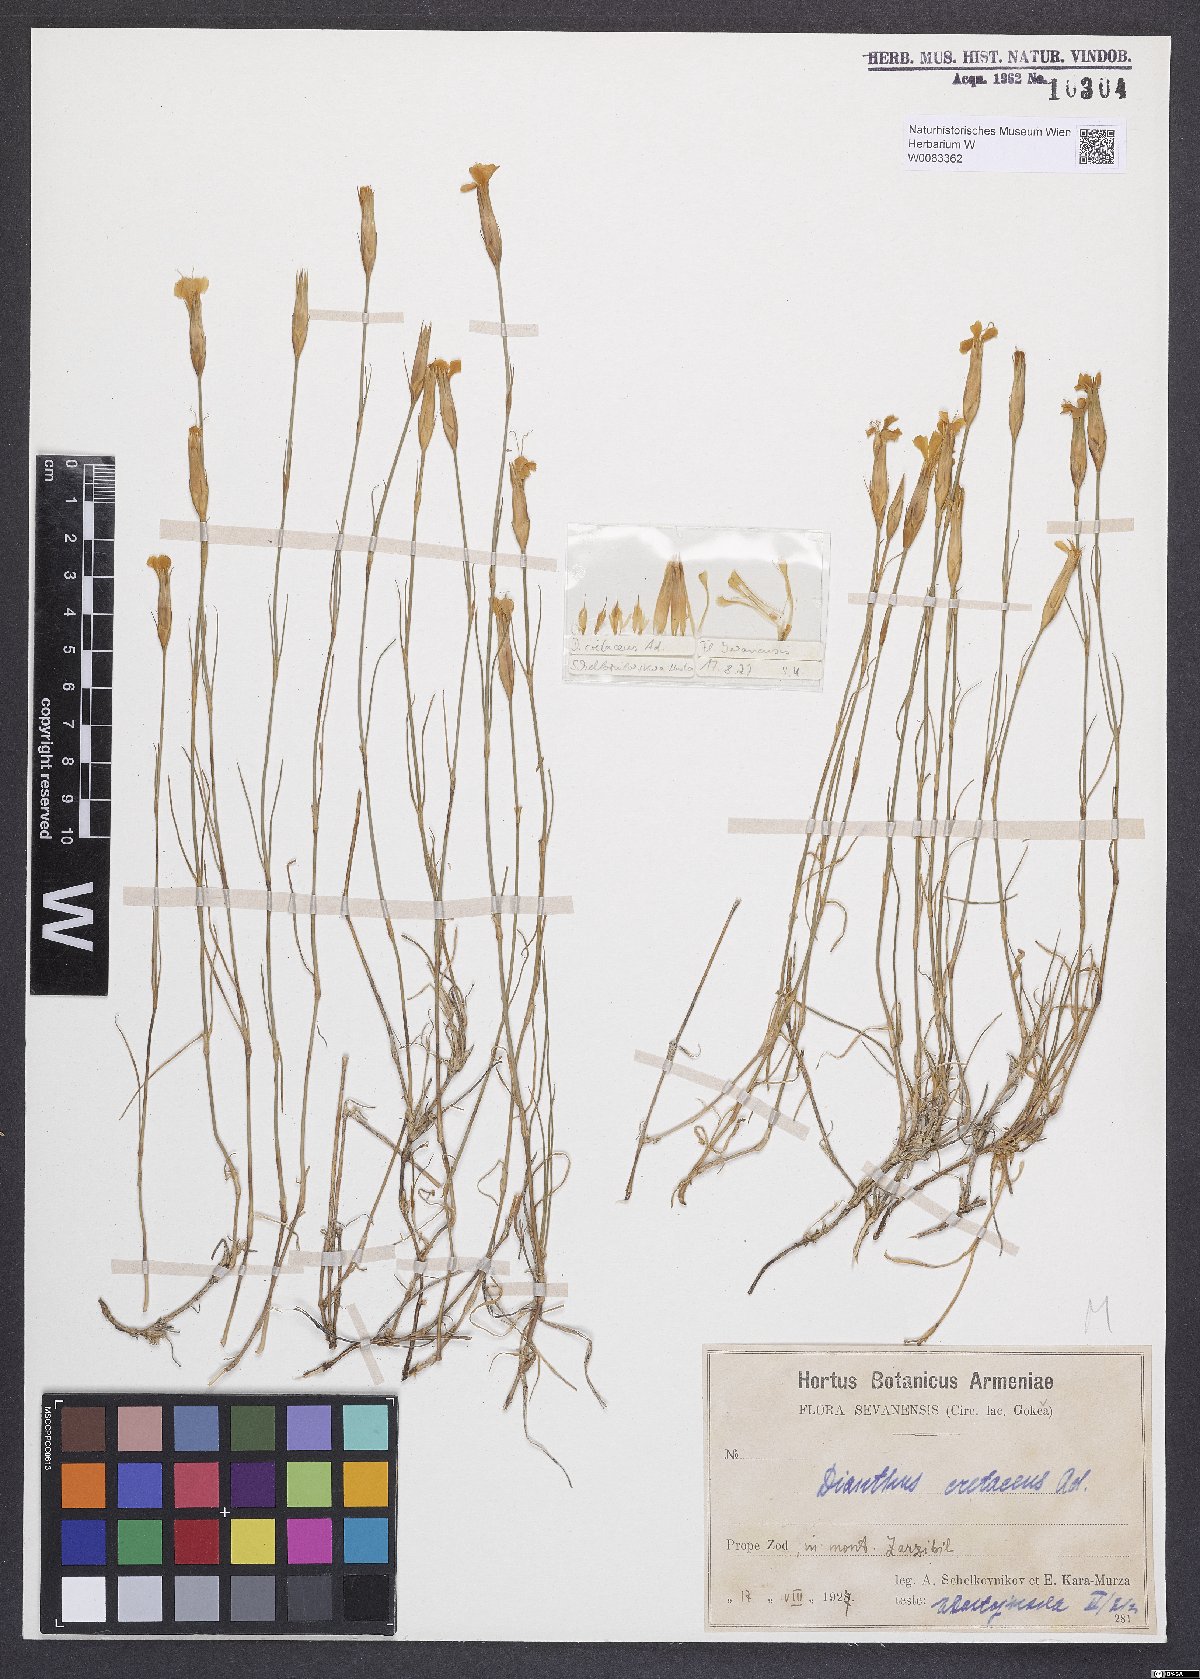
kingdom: Plantae
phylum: Tracheophyta
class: Magnoliopsida
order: Caryophyllales
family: Caryophyllaceae
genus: Dianthus
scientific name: Dianthus cretaceus
